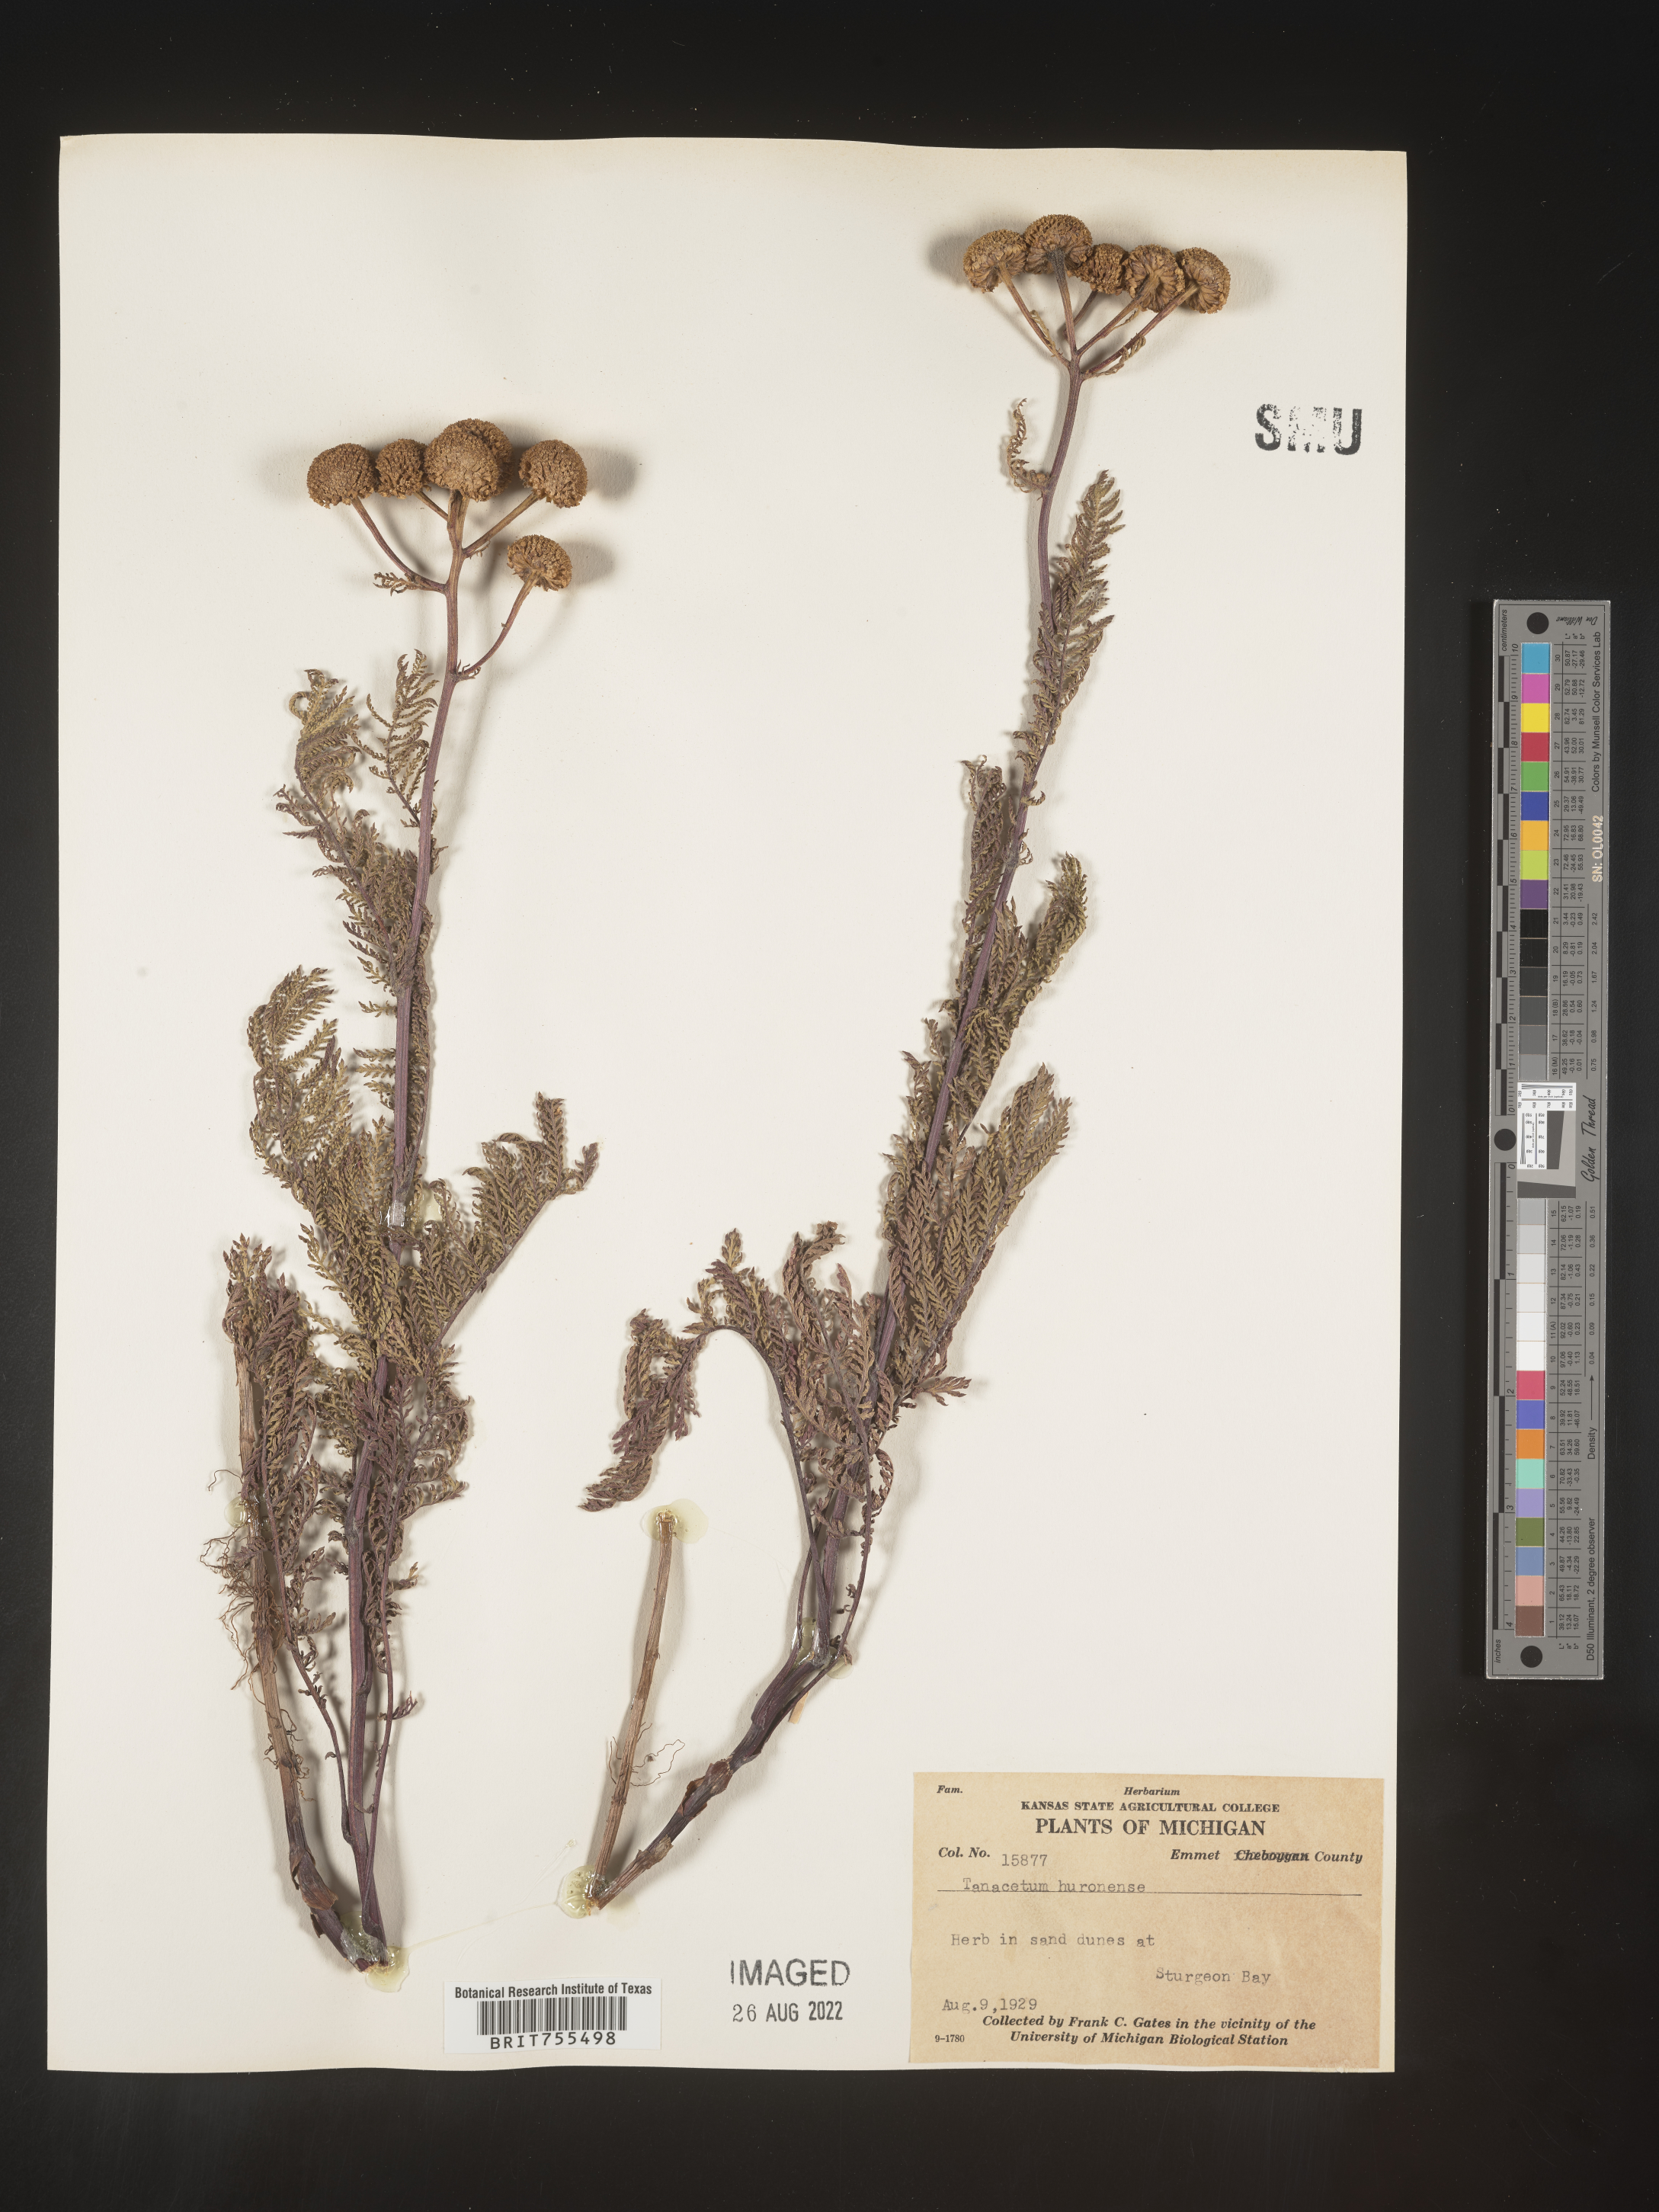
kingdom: Plantae
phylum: Tracheophyta
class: Magnoliopsida
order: Asterales
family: Asteraceae
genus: Tanacetum
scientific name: Tanacetum bipinnatum
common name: Dwarf tansy
